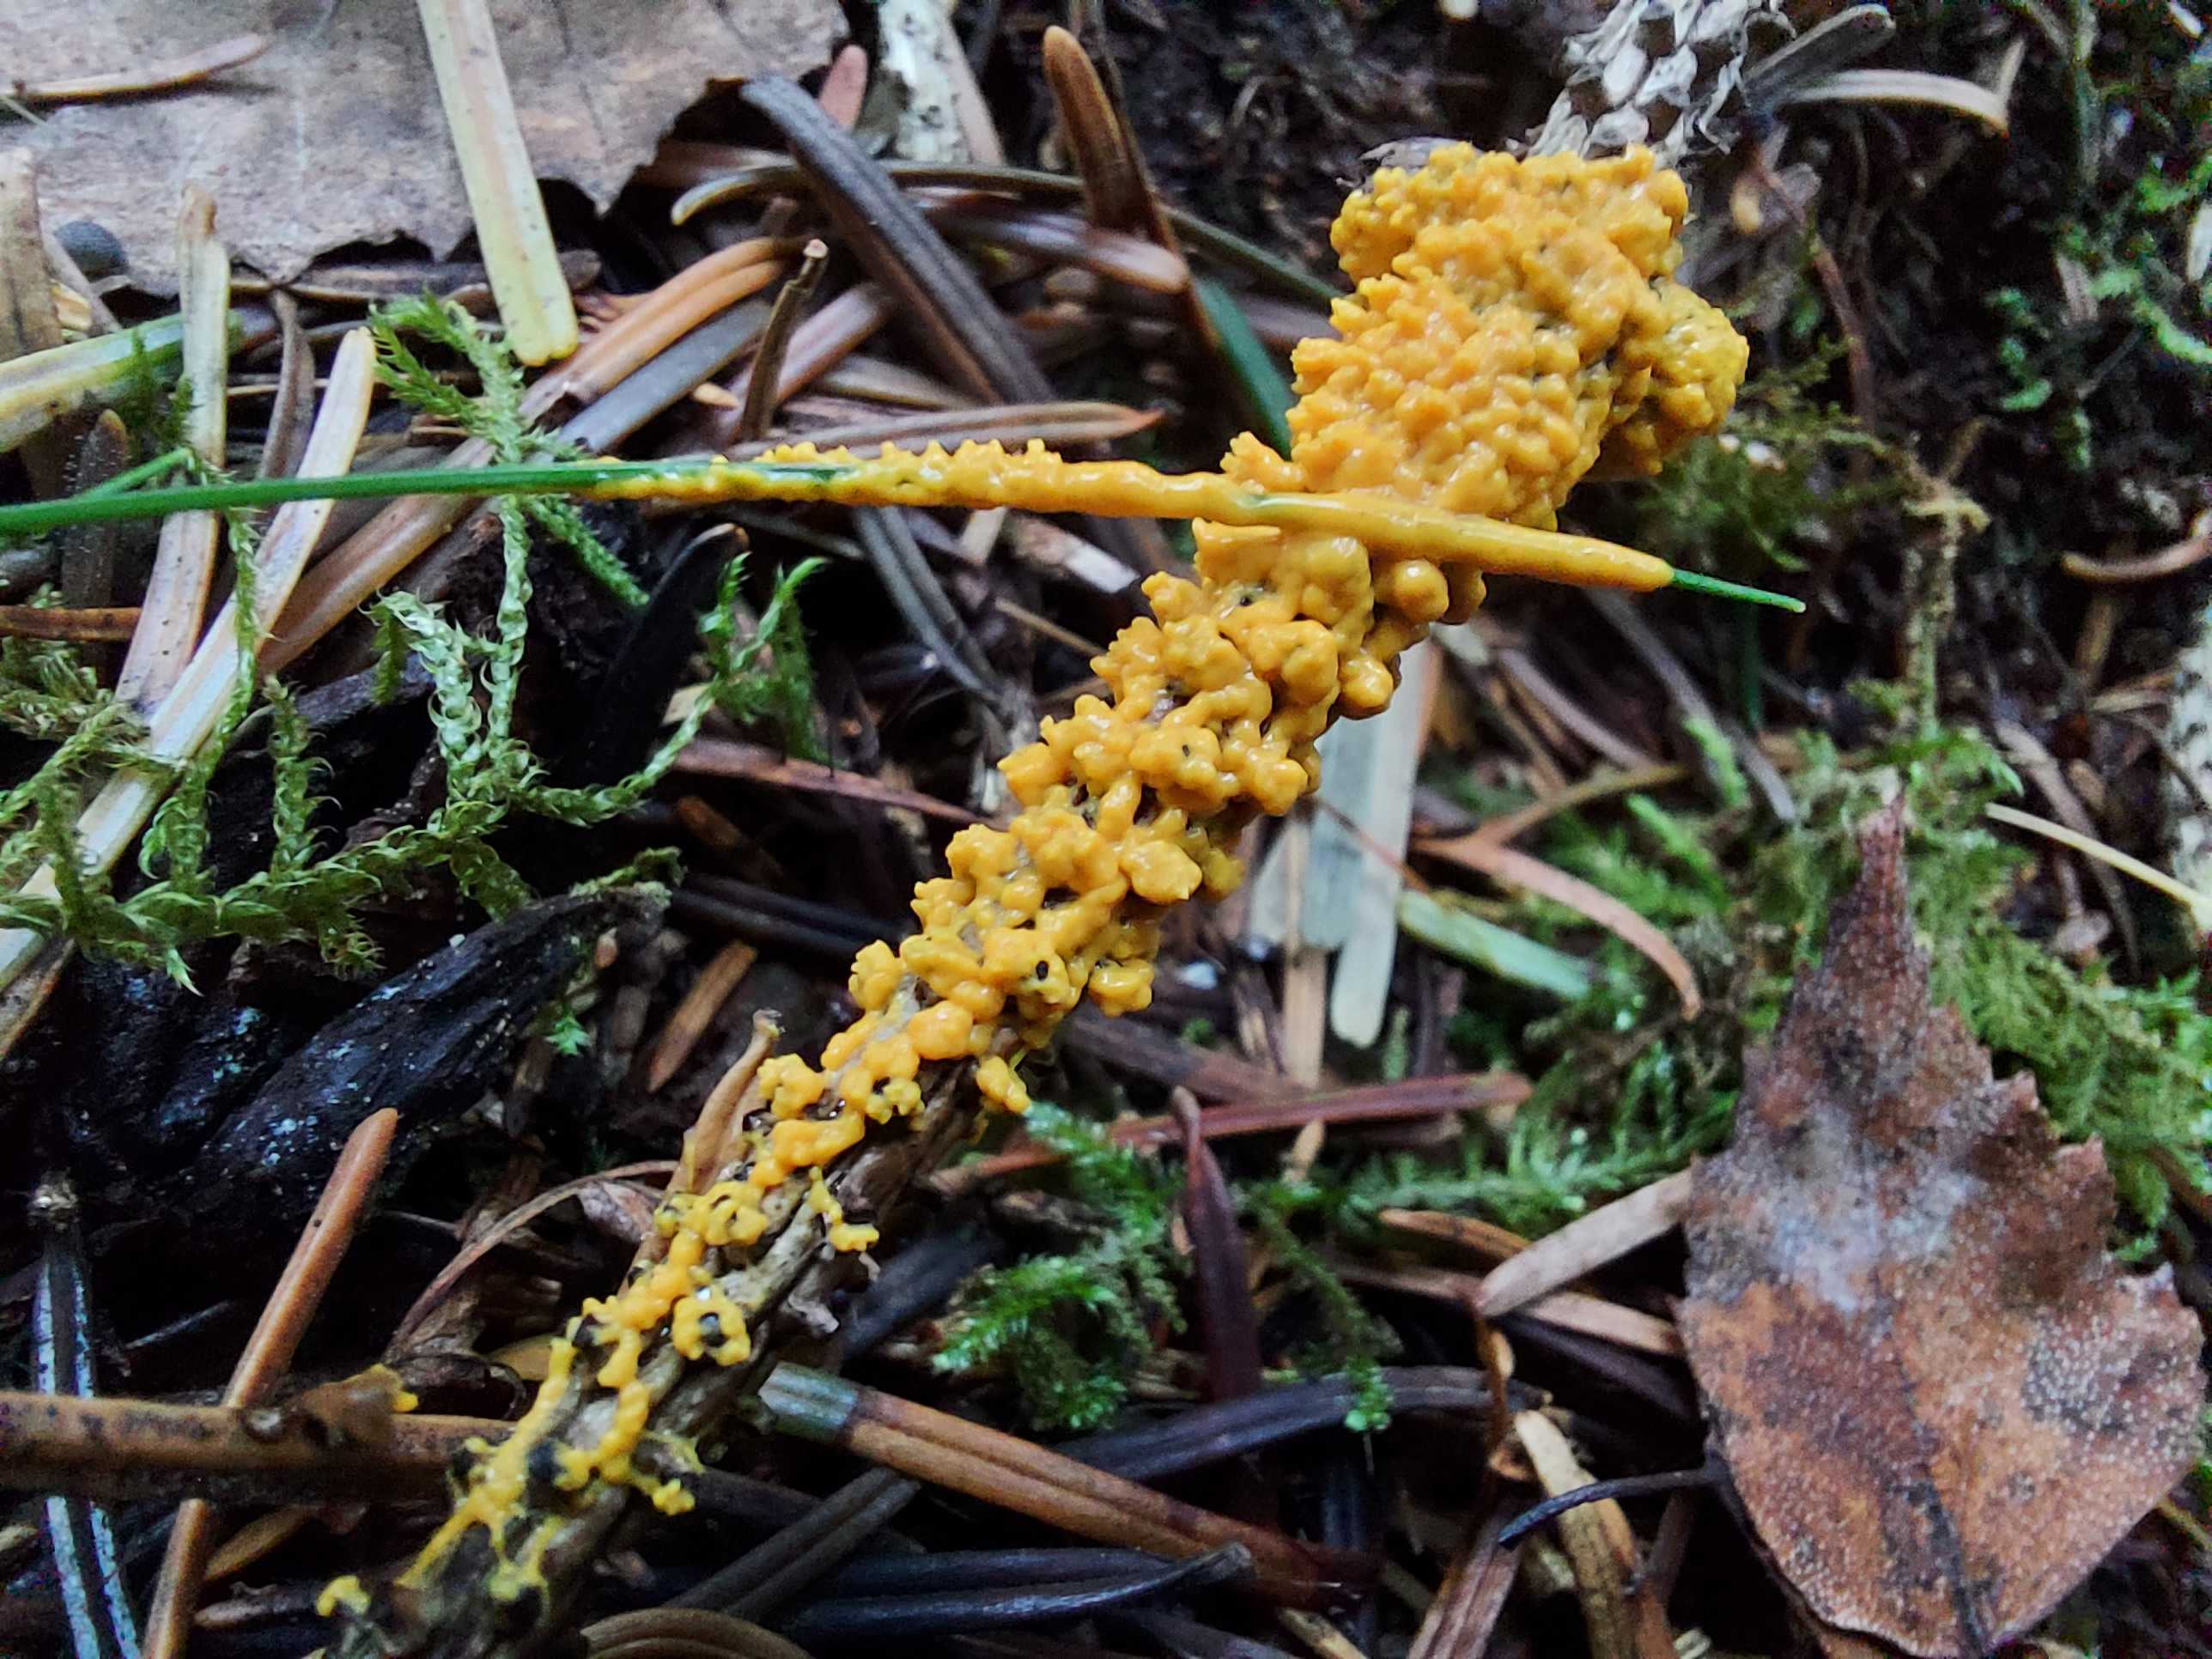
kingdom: Protozoa
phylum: Mycetozoa
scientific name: Mycetozoa
